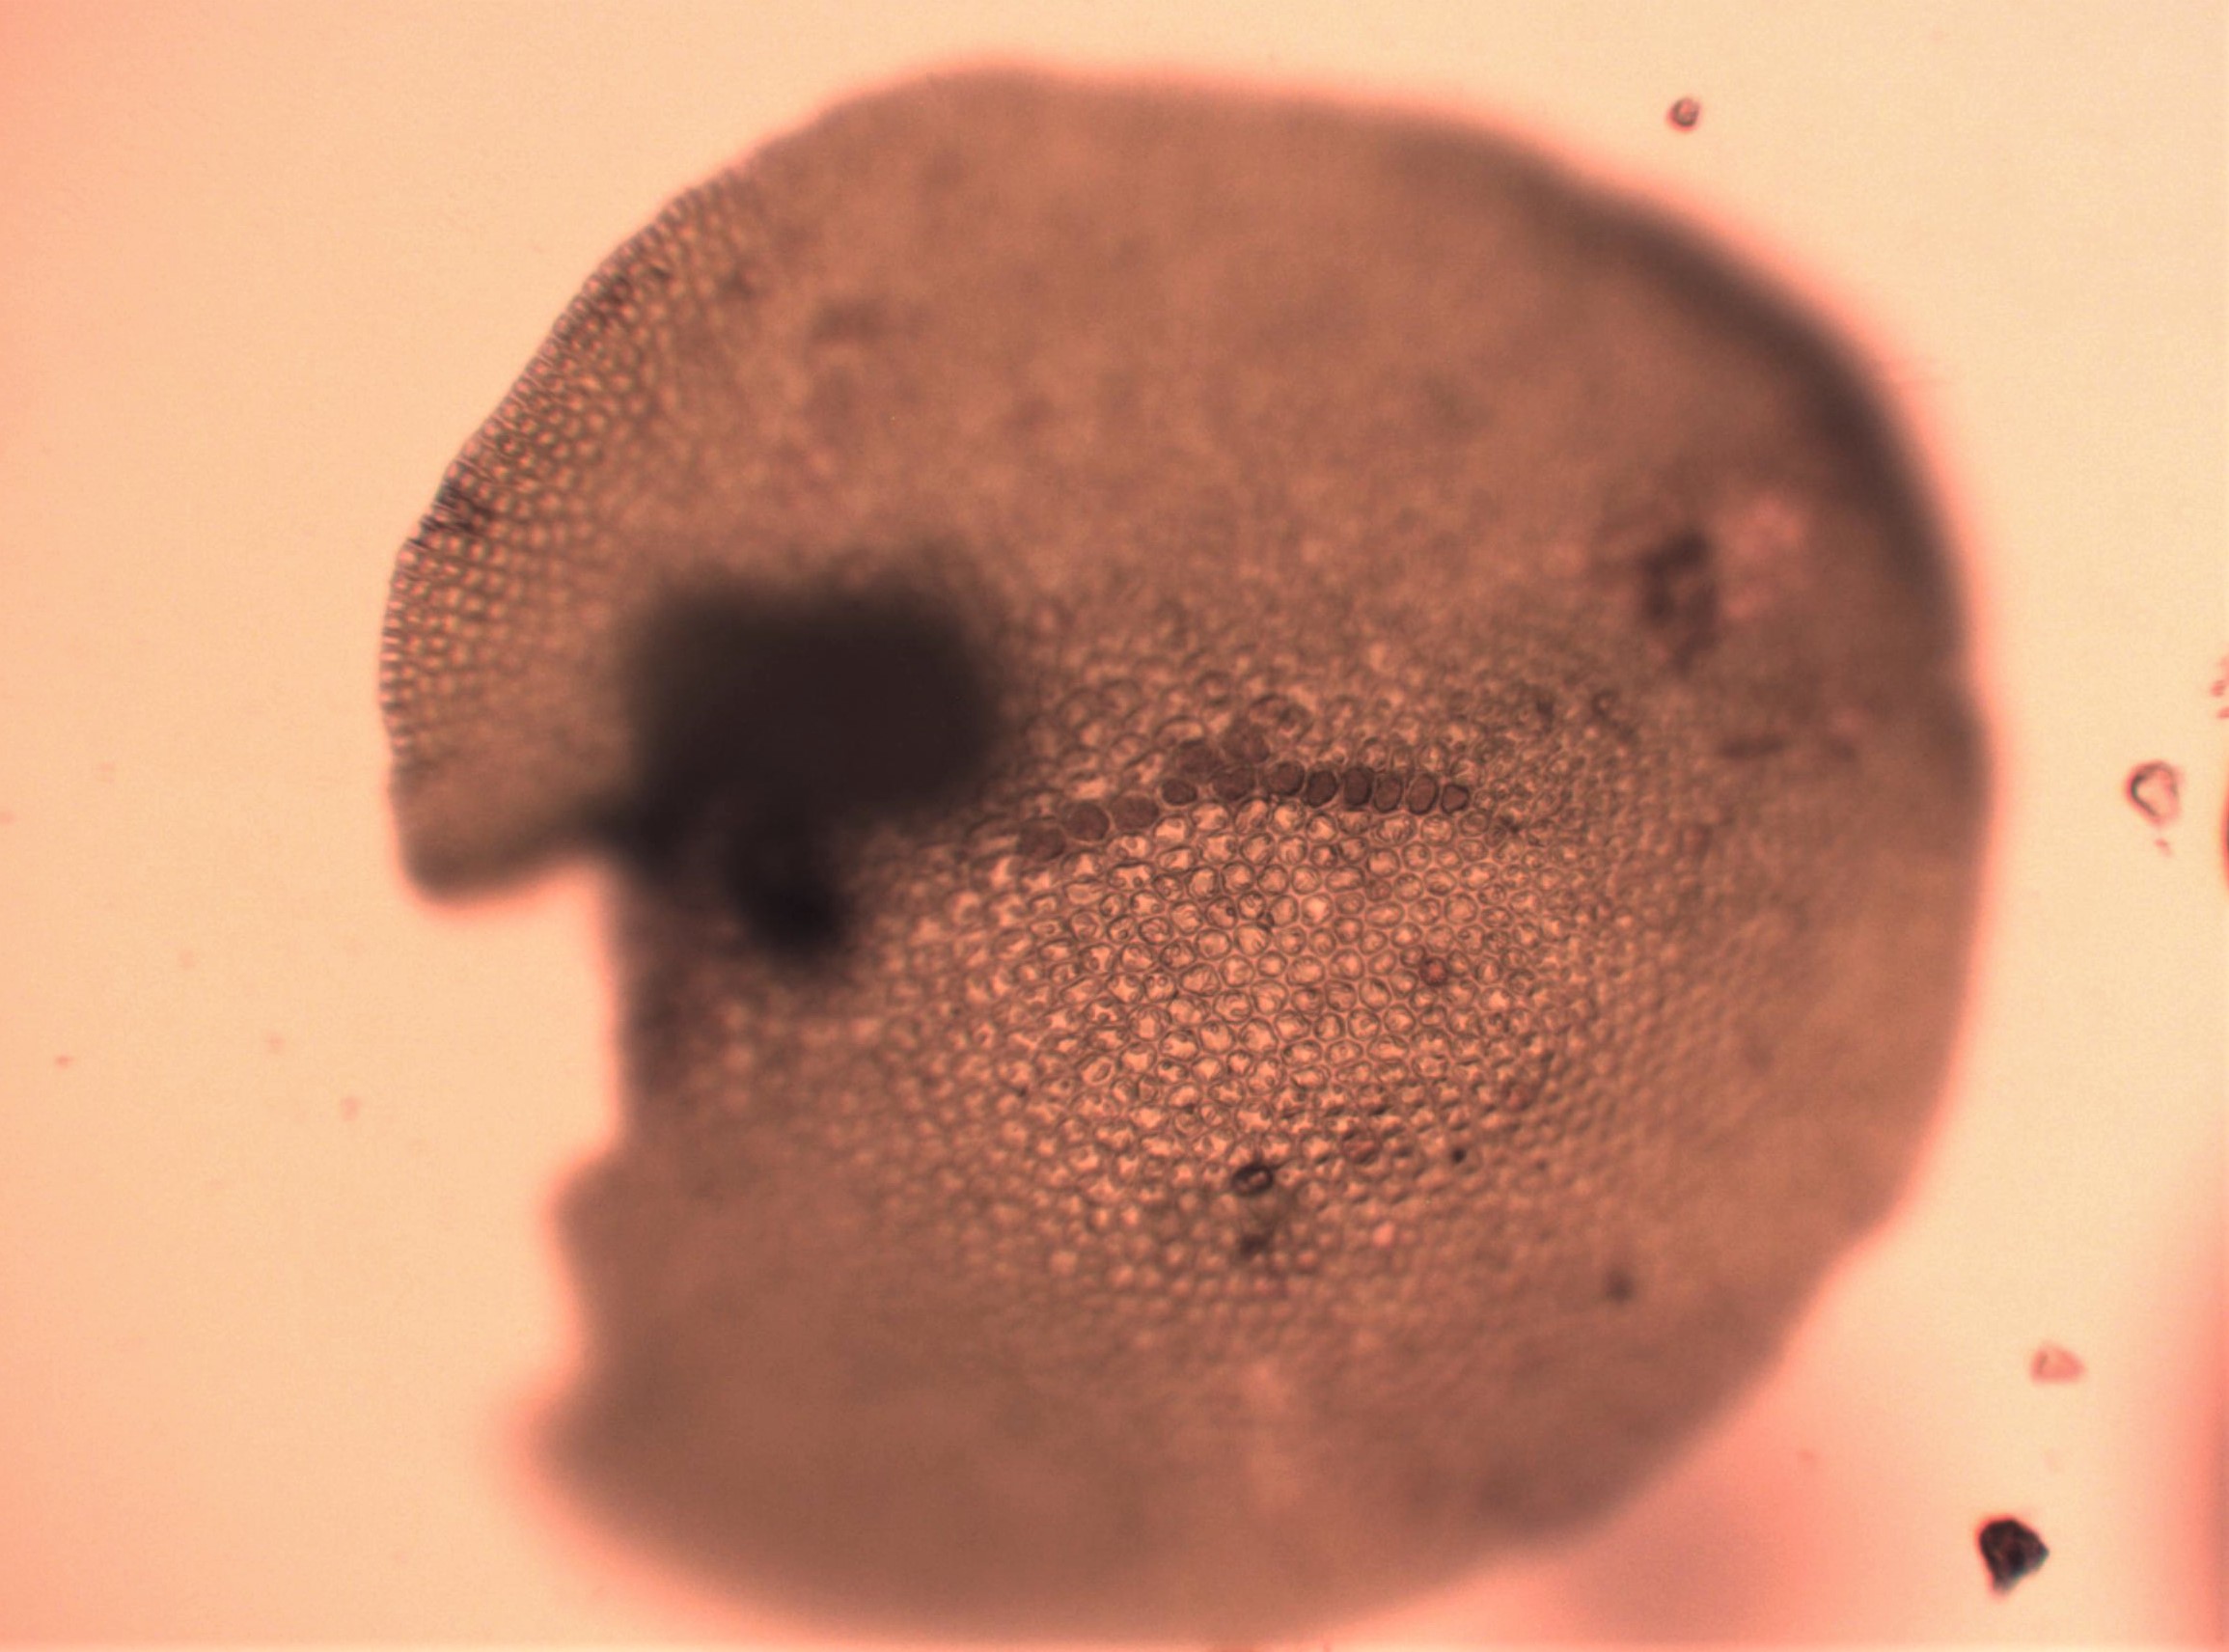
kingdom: Plantae
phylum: Marchantiophyta
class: Jungermanniopsida
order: Porellales
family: Frullaniaceae
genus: Frullania
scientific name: Frullania tamarisci
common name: Glinsende bronzemos
